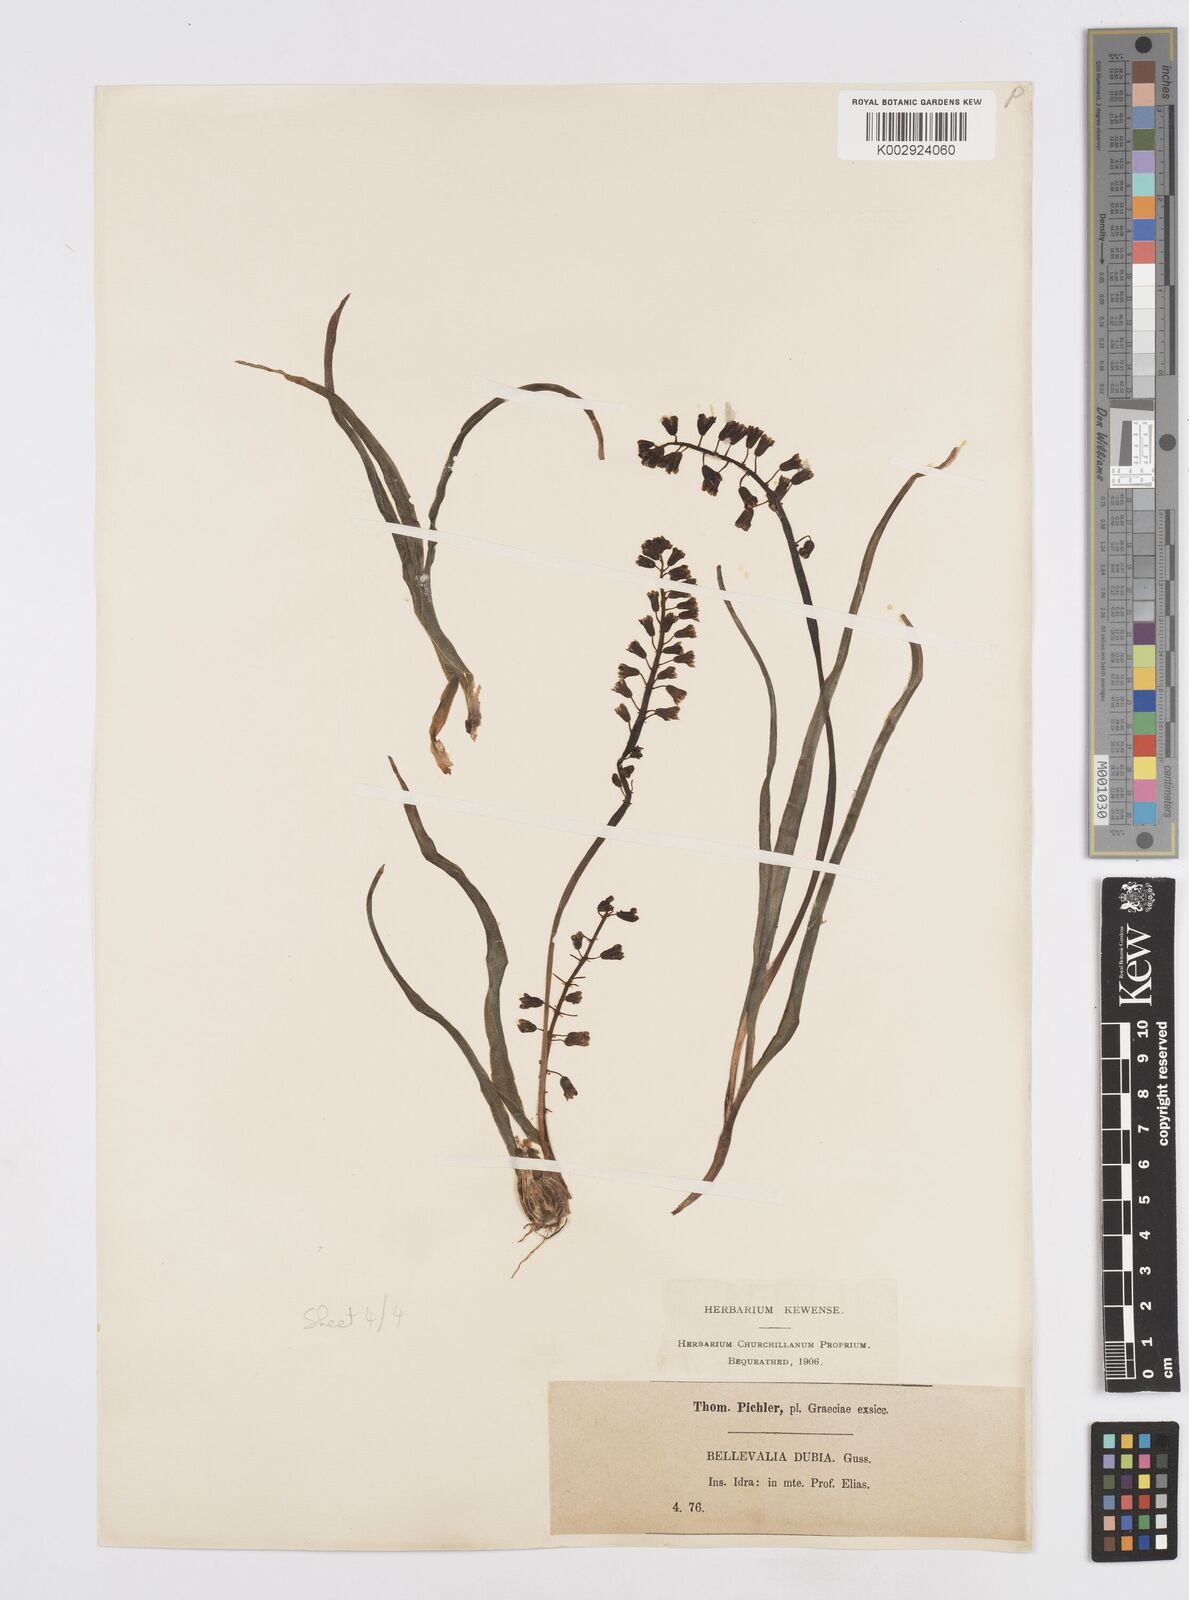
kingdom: Plantae
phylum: Tracheophyta
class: Liliopsida
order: Asparagales
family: Asparagaceae
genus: Bellevalia
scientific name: Bellevalia dubia
